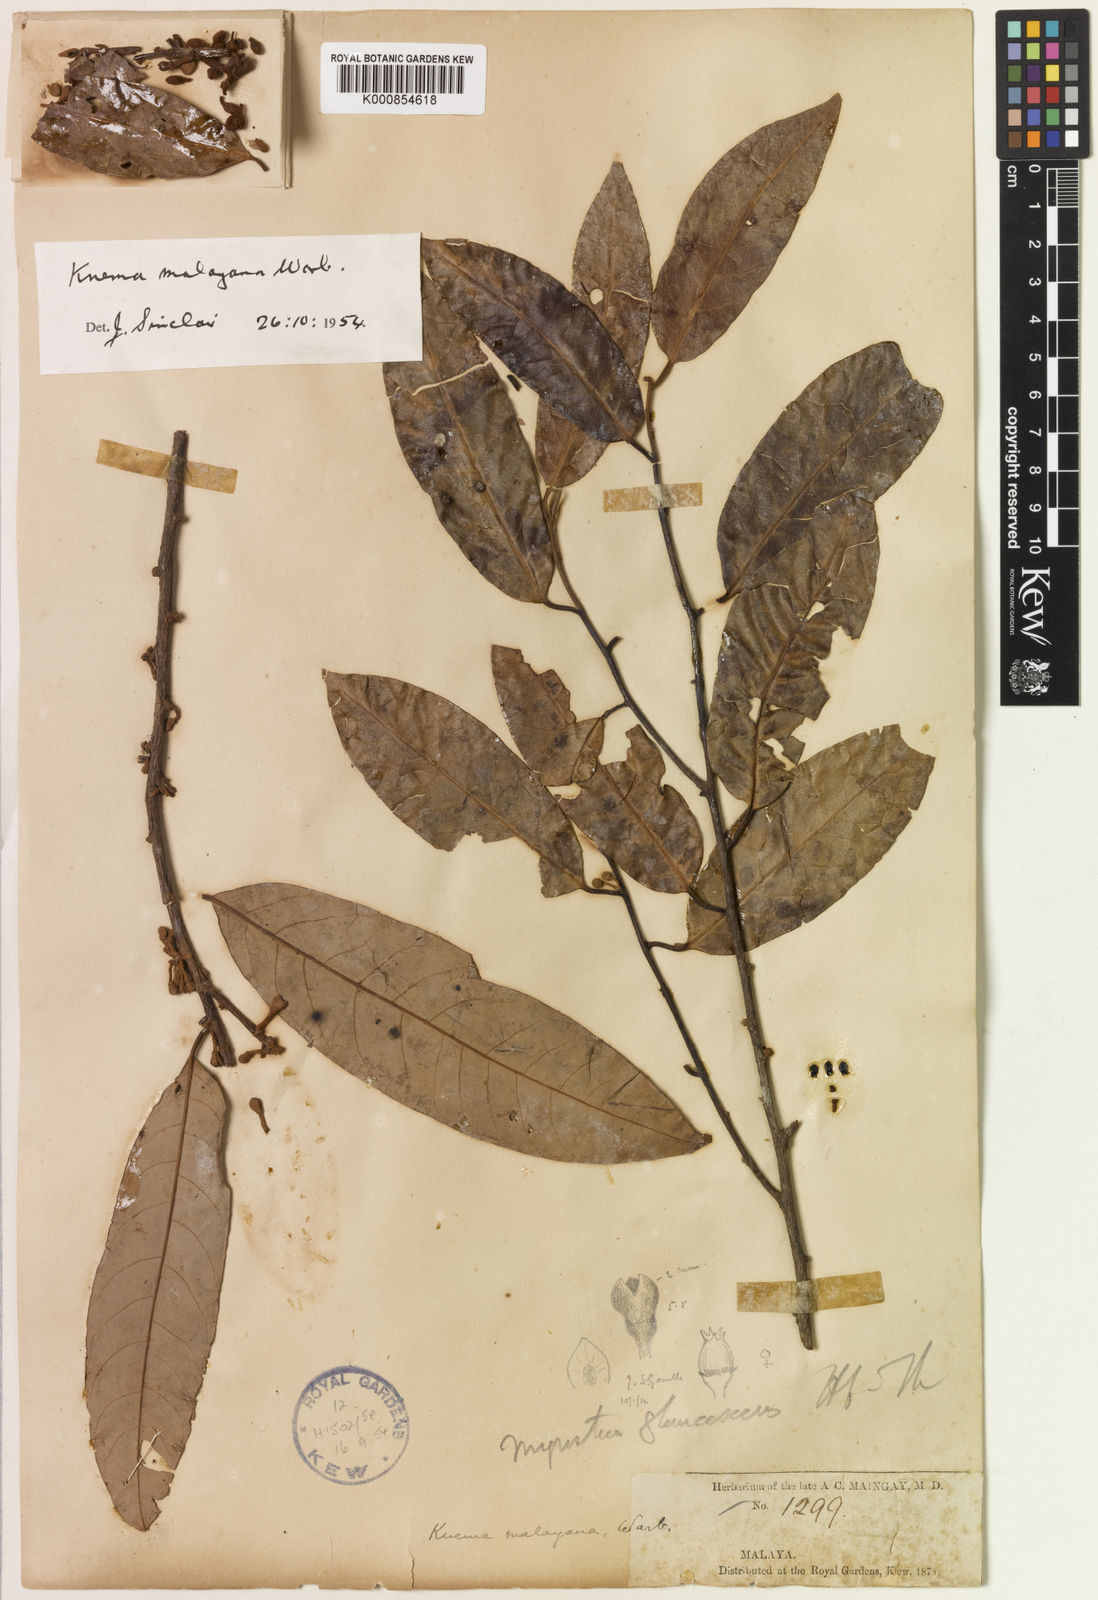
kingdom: Plantae
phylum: Tracheophyta
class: Magnoliopsida
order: Magnoliales
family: Myristicaceae
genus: Knema
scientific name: Knema malayana
